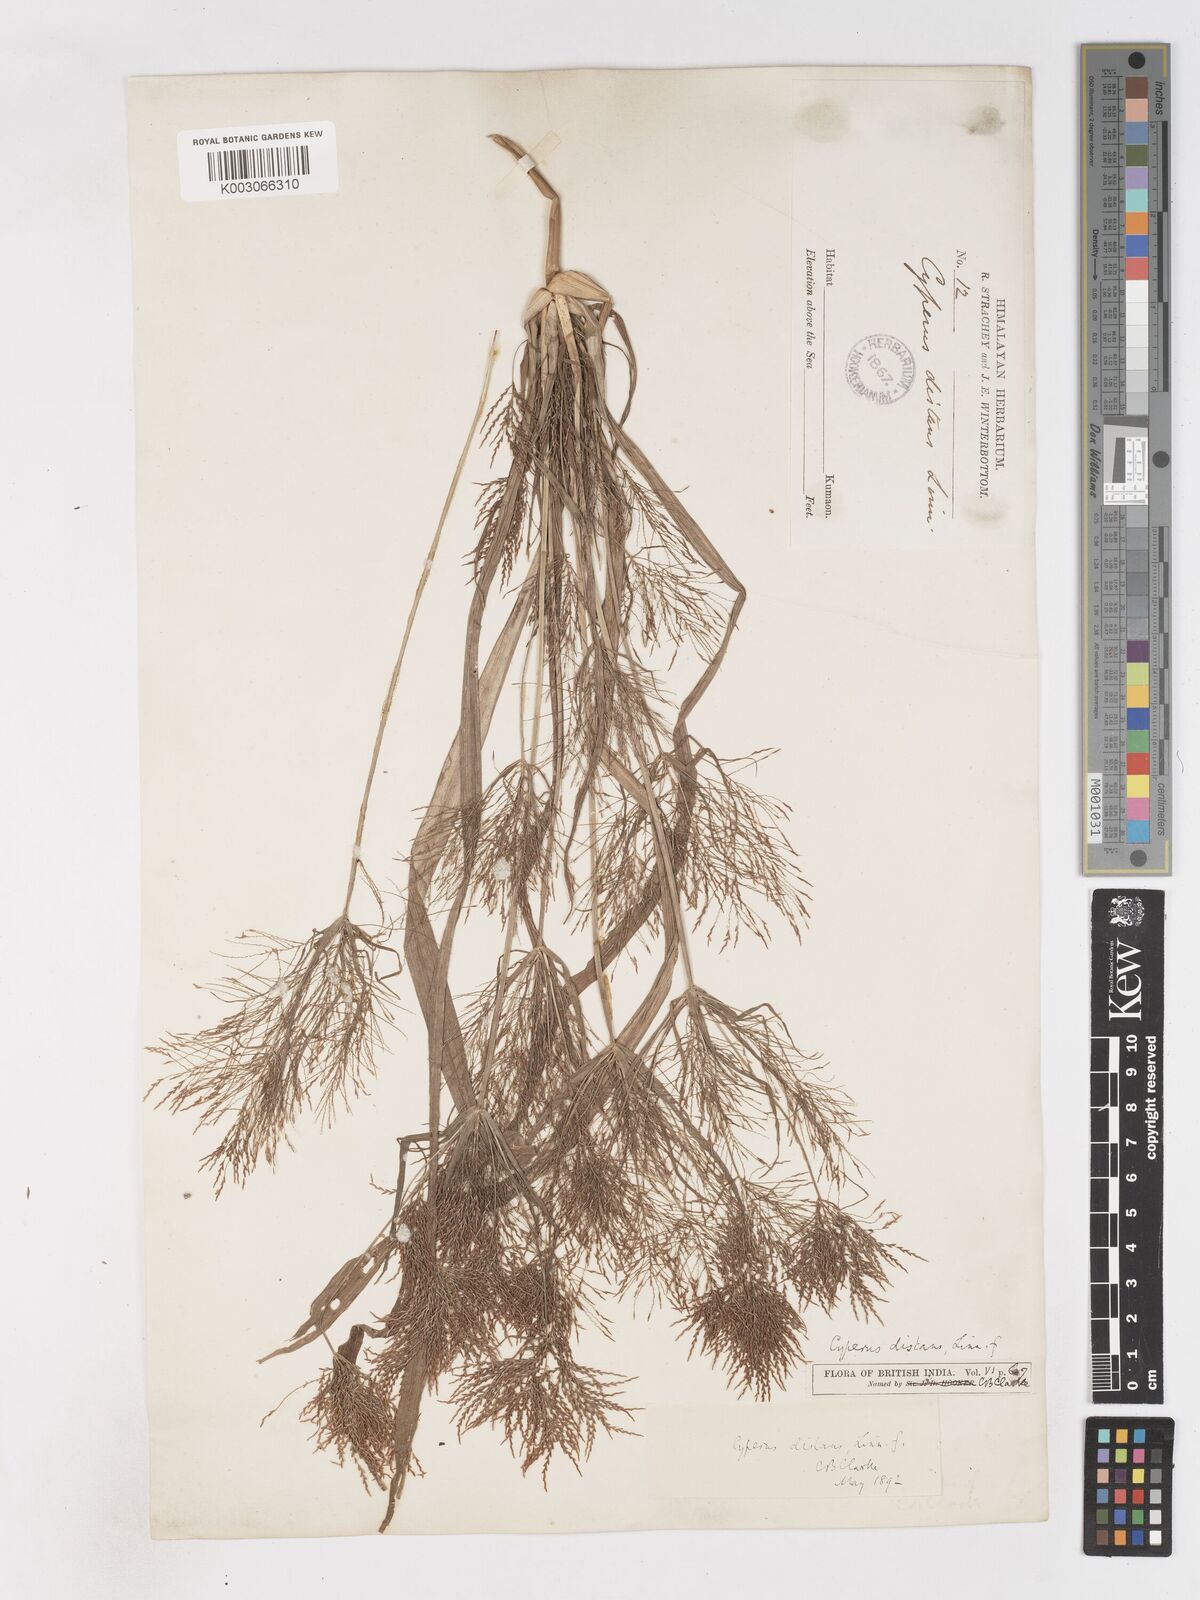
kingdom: Plantae
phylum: Tracheophyta
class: Liliopsida
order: Poales
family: Cyperaceae
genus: Cyperus
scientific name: Cyperus distans
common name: Slender cyperus
